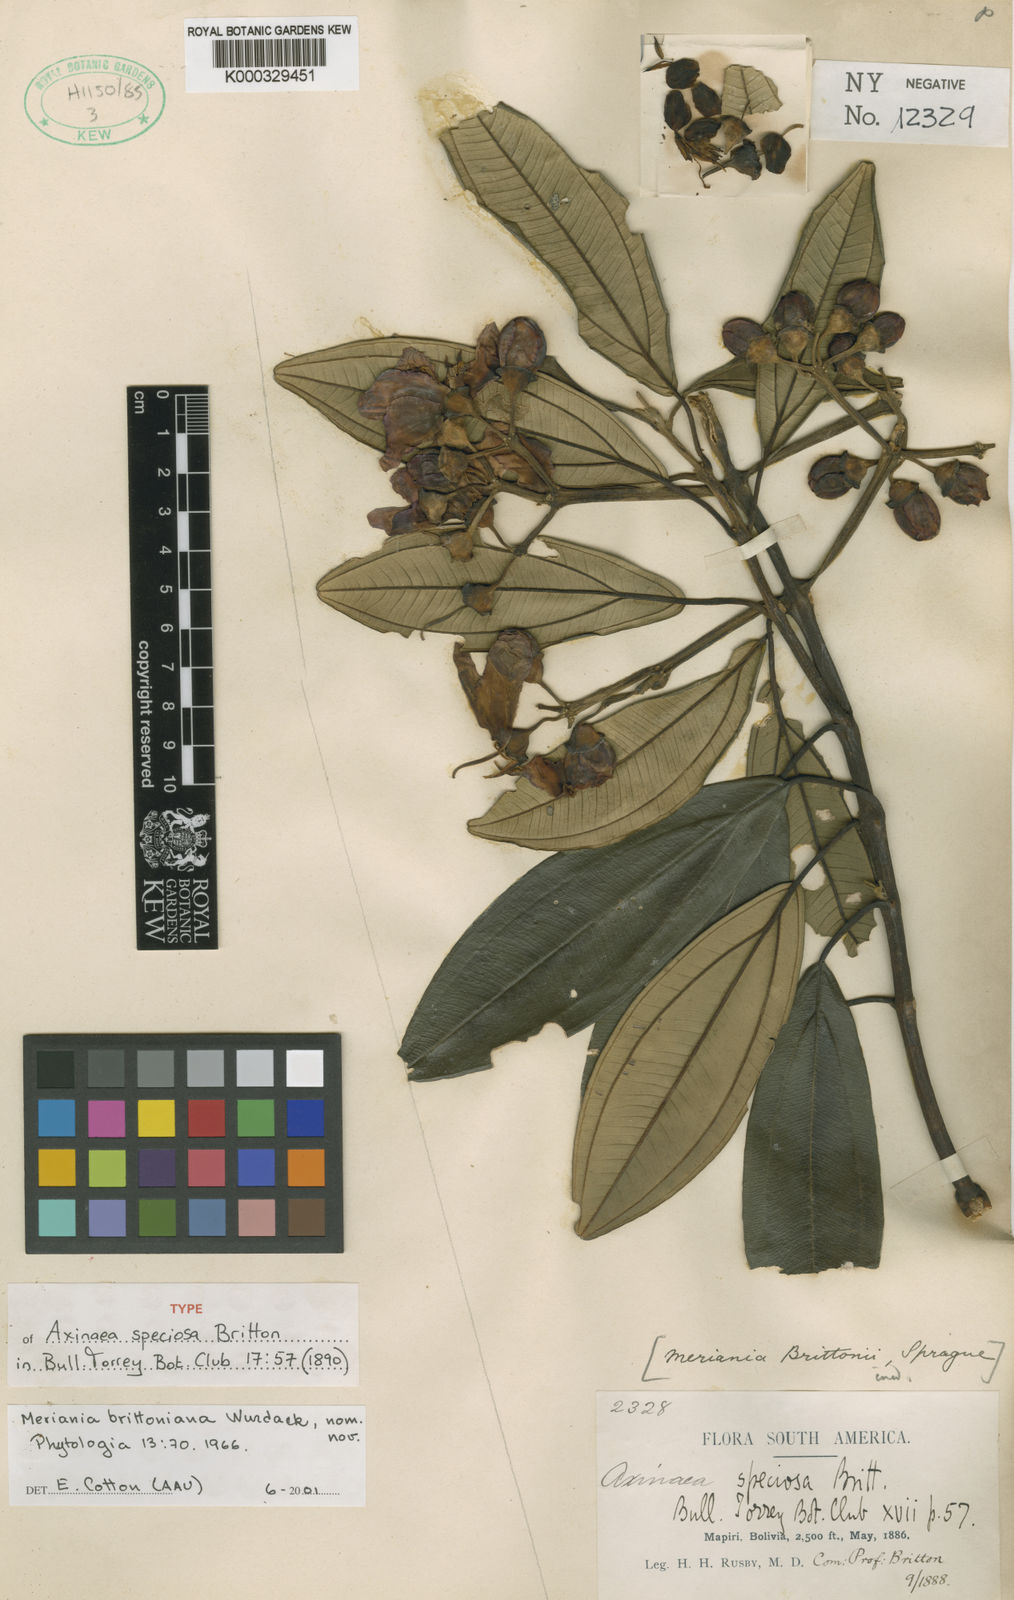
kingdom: Plantae
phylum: Tracheophyta
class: Magnoliopsida
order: Myrtales
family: Melastomataceae
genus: Meriania
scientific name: Meriania brittoniana
